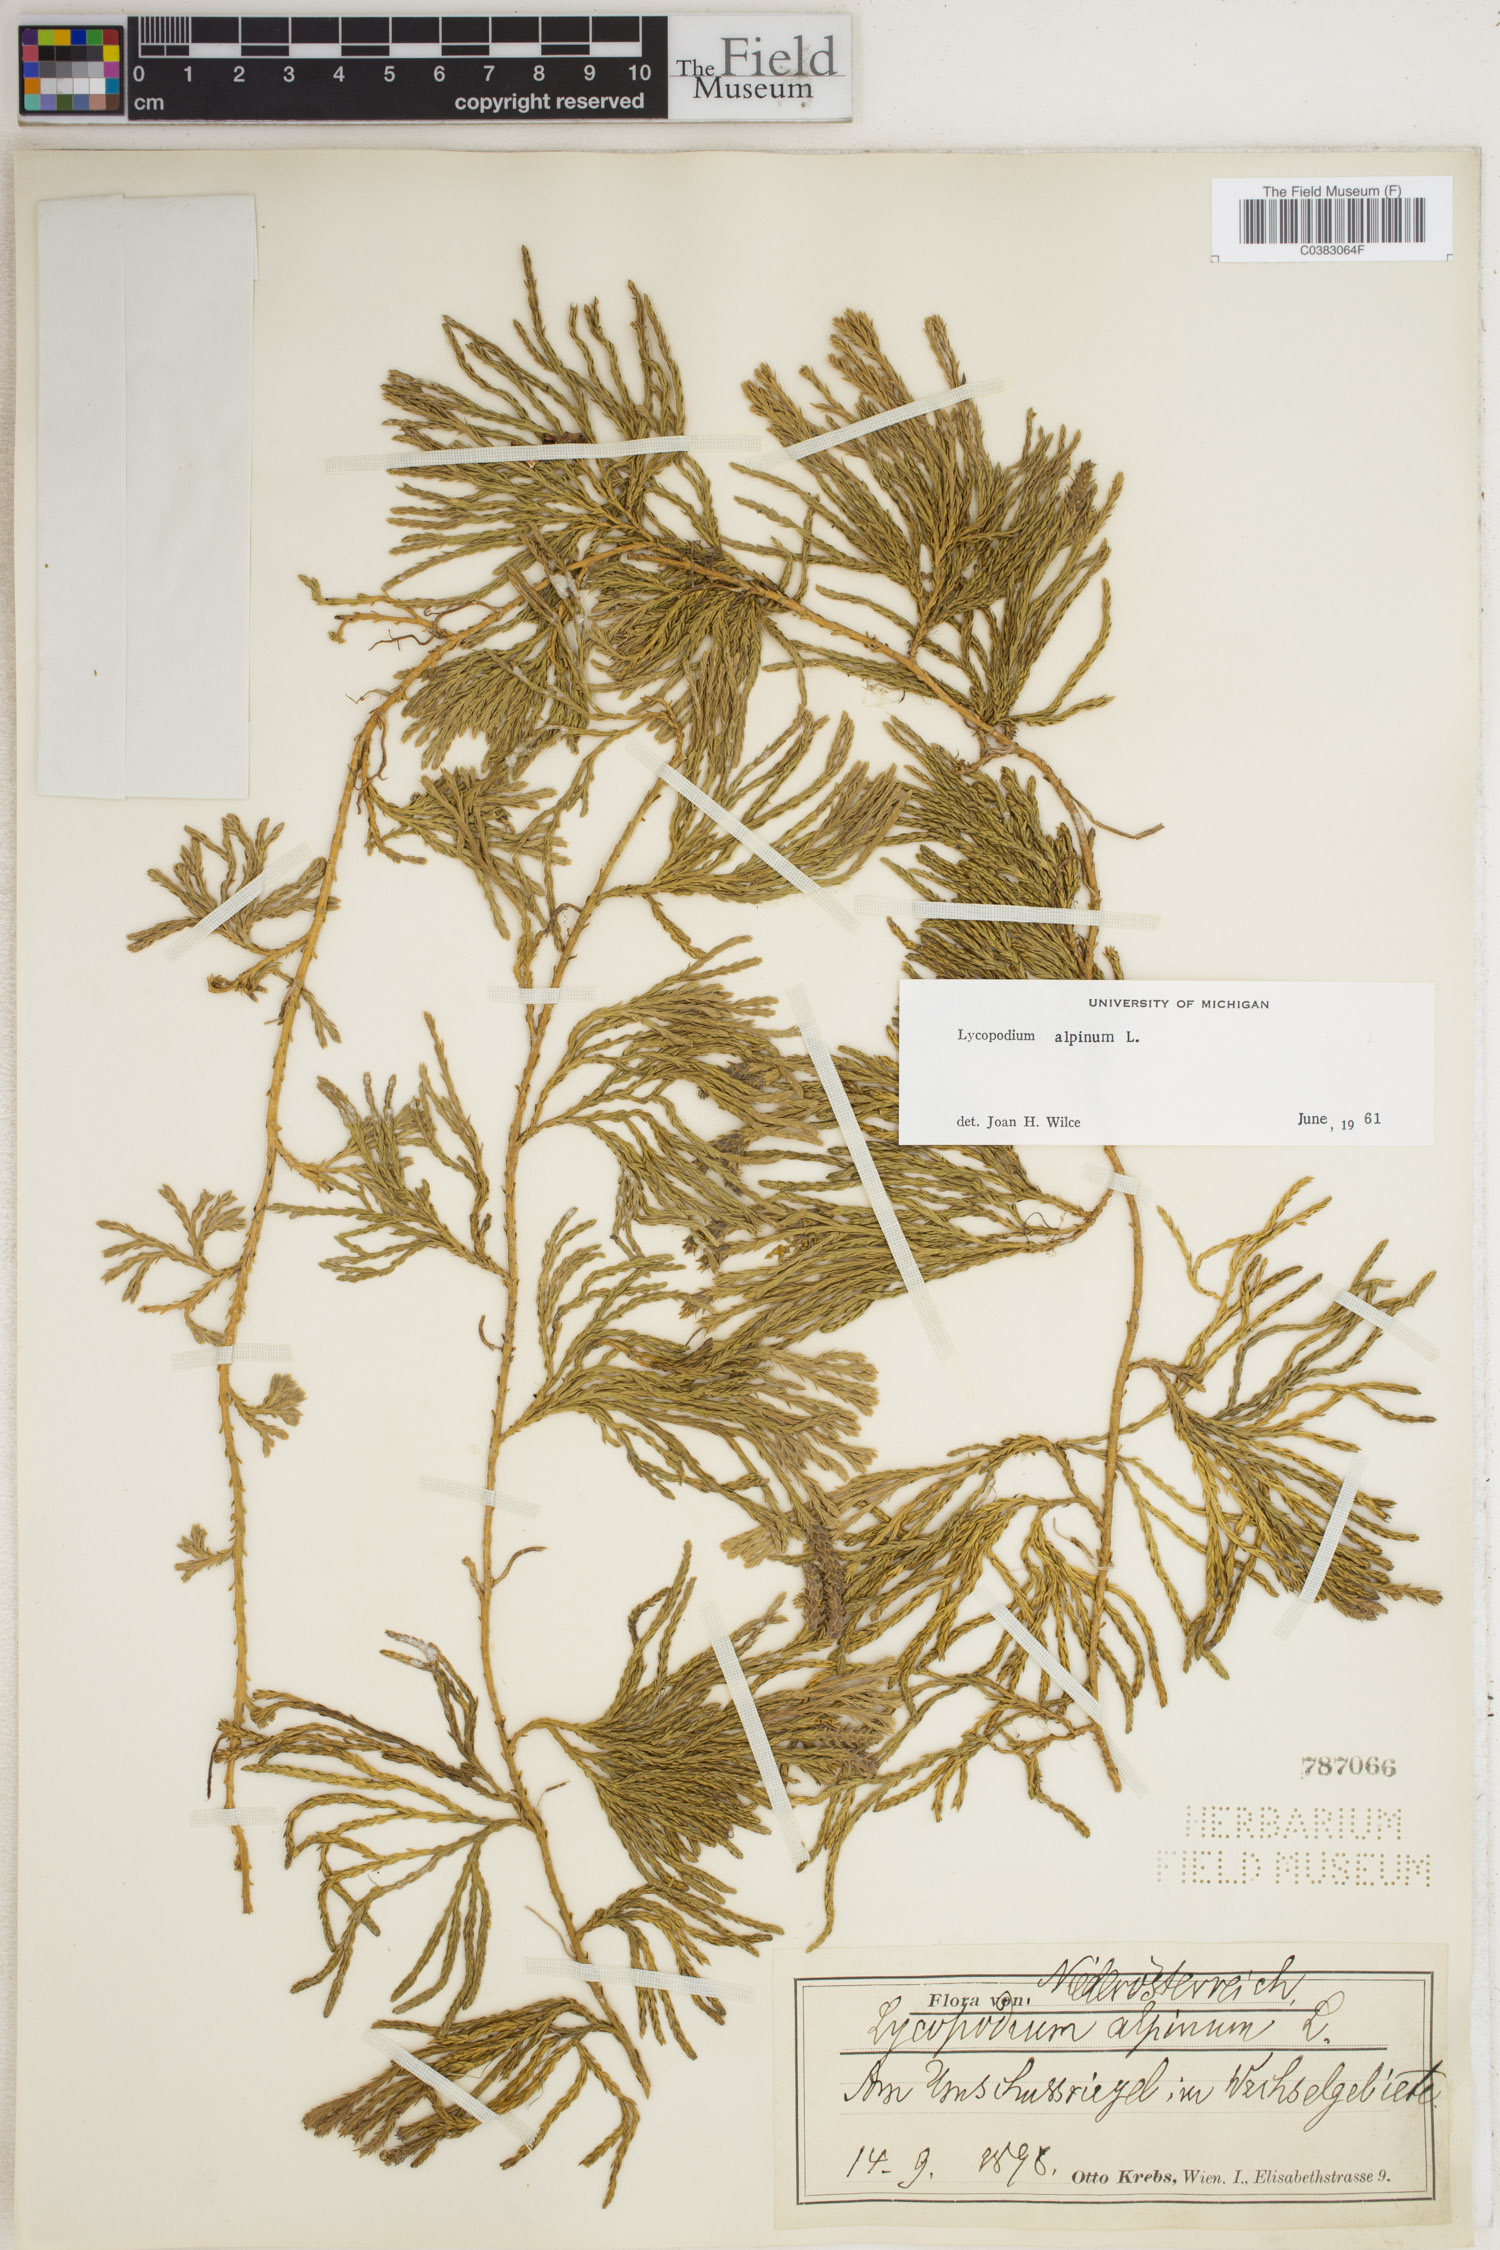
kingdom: Plantae
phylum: Tracheophyta
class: Lycopodiopsida
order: Lycopodiales
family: Lycopodiaceae
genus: Diphasiastrum
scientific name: Diphasiastrum alpinum
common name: Alpine clubmoss
